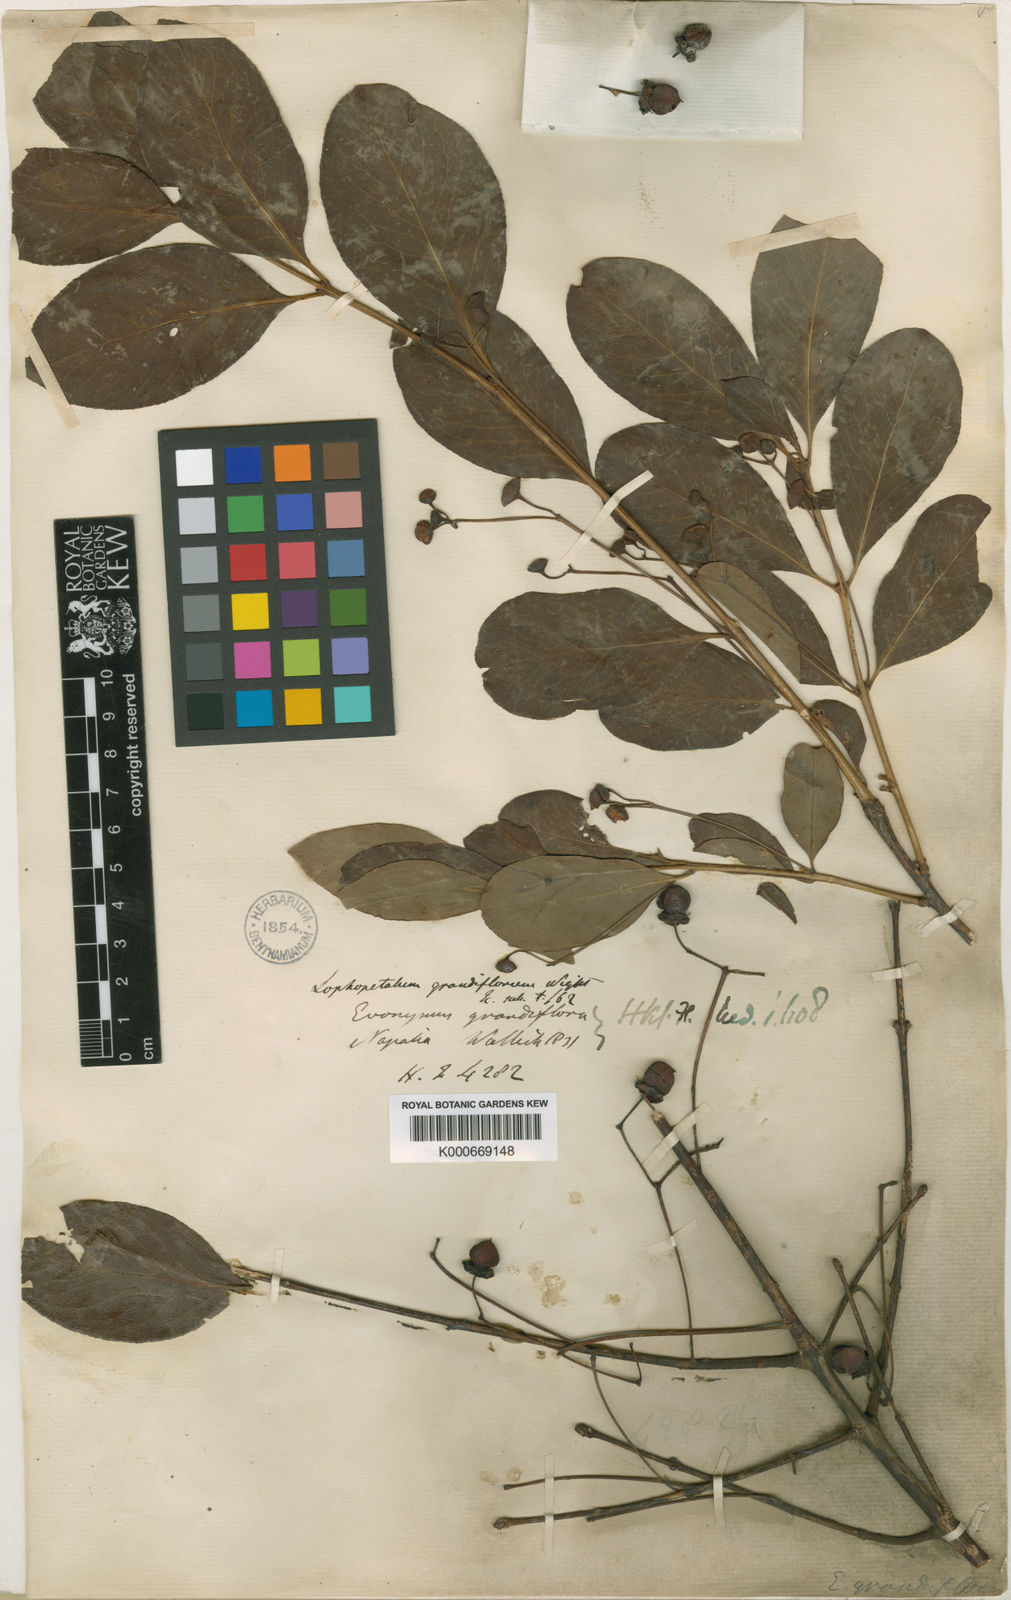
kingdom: Plantae
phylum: Tracheophyta
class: Magnoliopsida
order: Celastrales
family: Celastraceae
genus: Euonymus
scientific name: Euonymus grandiflorus
